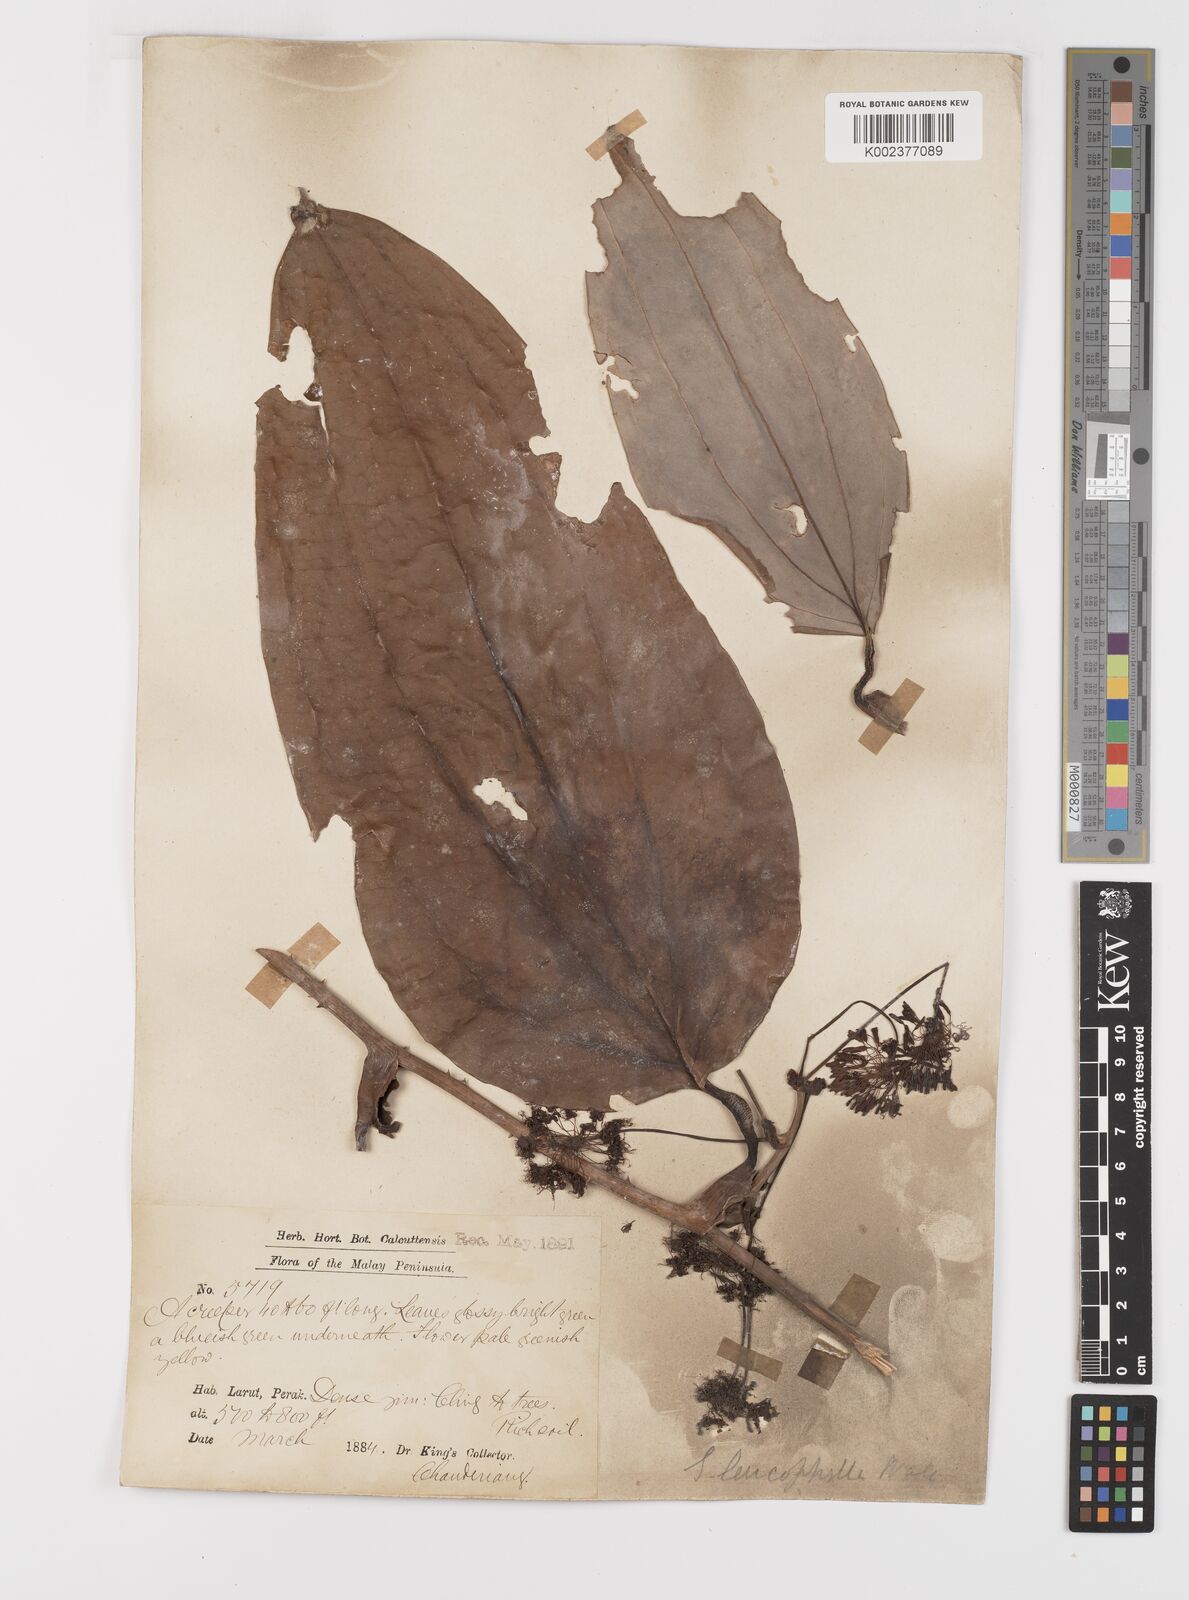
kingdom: Plantae
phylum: Tracheophyta
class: Liliopsida
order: Liliales
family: Smilacaceae
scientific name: Smilacaceae
